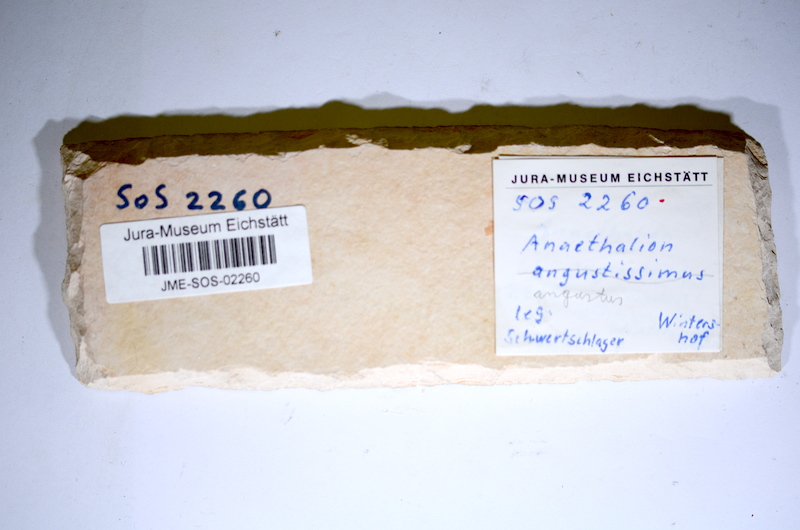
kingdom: Animalia
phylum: Chordata
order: Elopiformes
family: Anaethalionidae
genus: Anaethalion
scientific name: Anaethalion angustus
